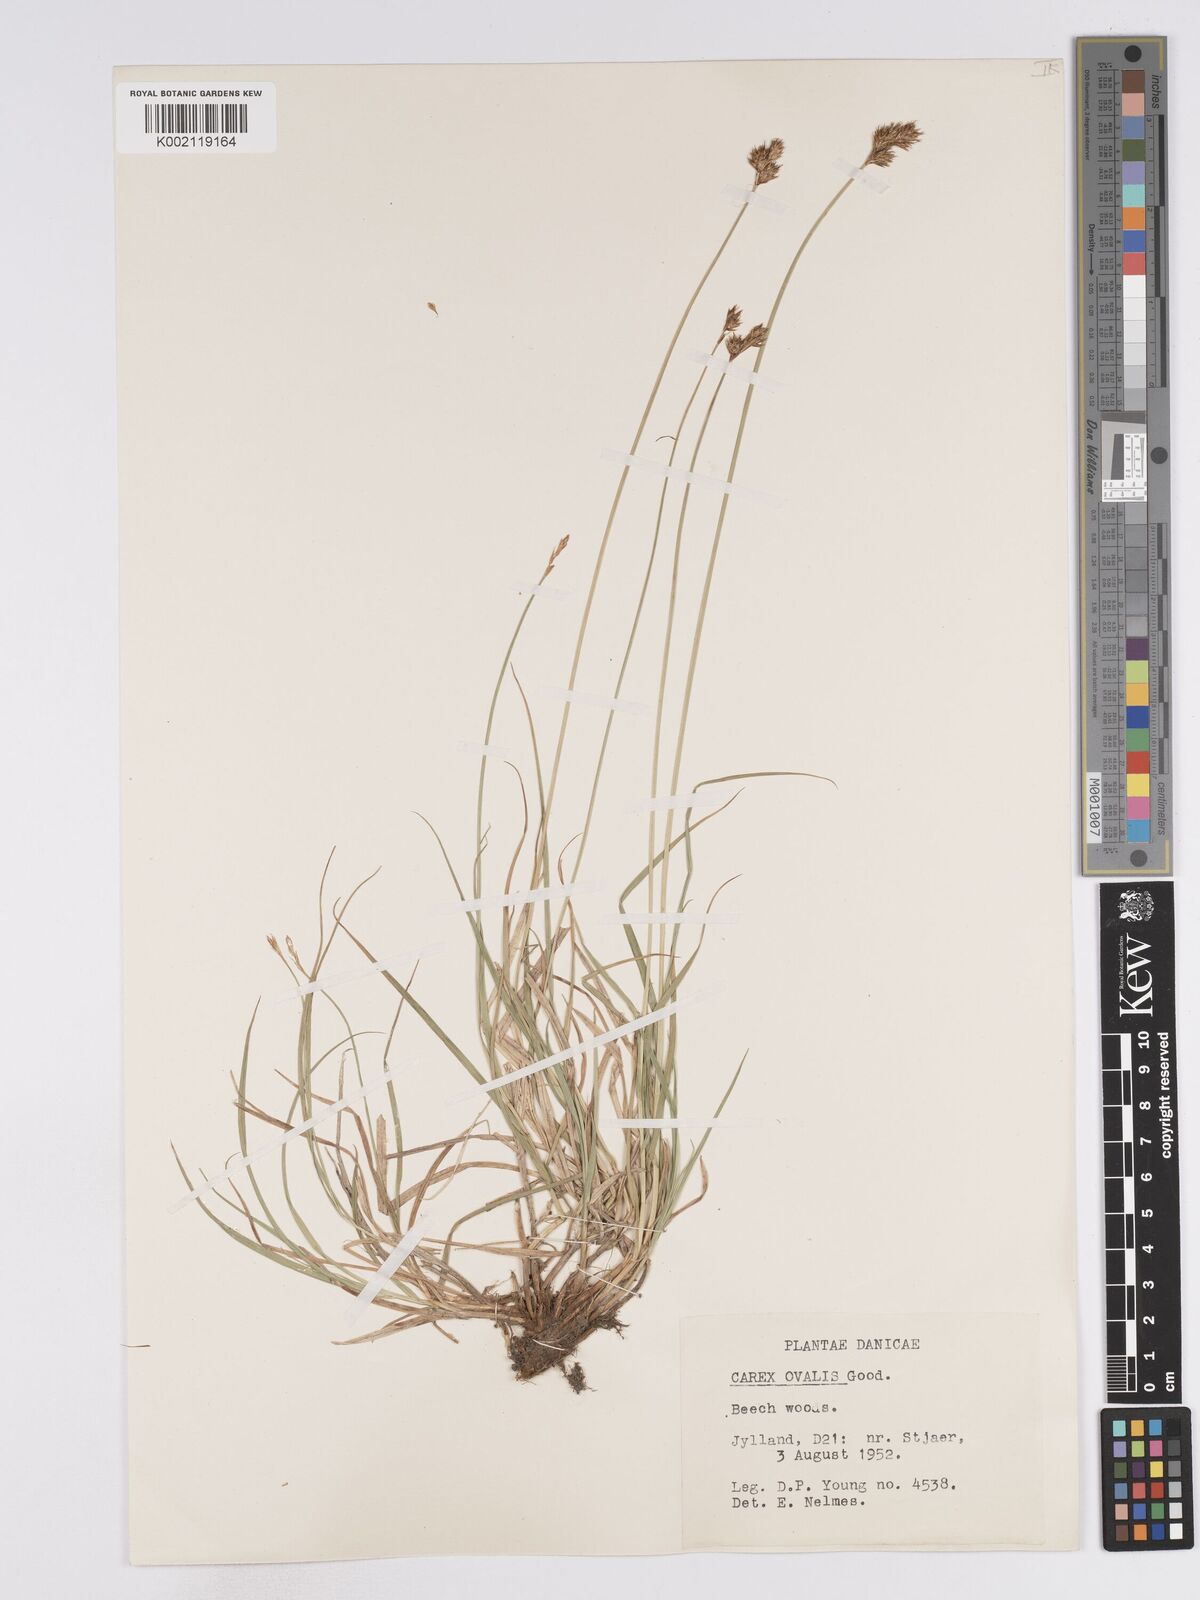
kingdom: Plantae
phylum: Tracheophyta
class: Liliopsida
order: Poales
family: Cyperaceae
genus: Carex
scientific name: Carex leporina
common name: Oval sedge
